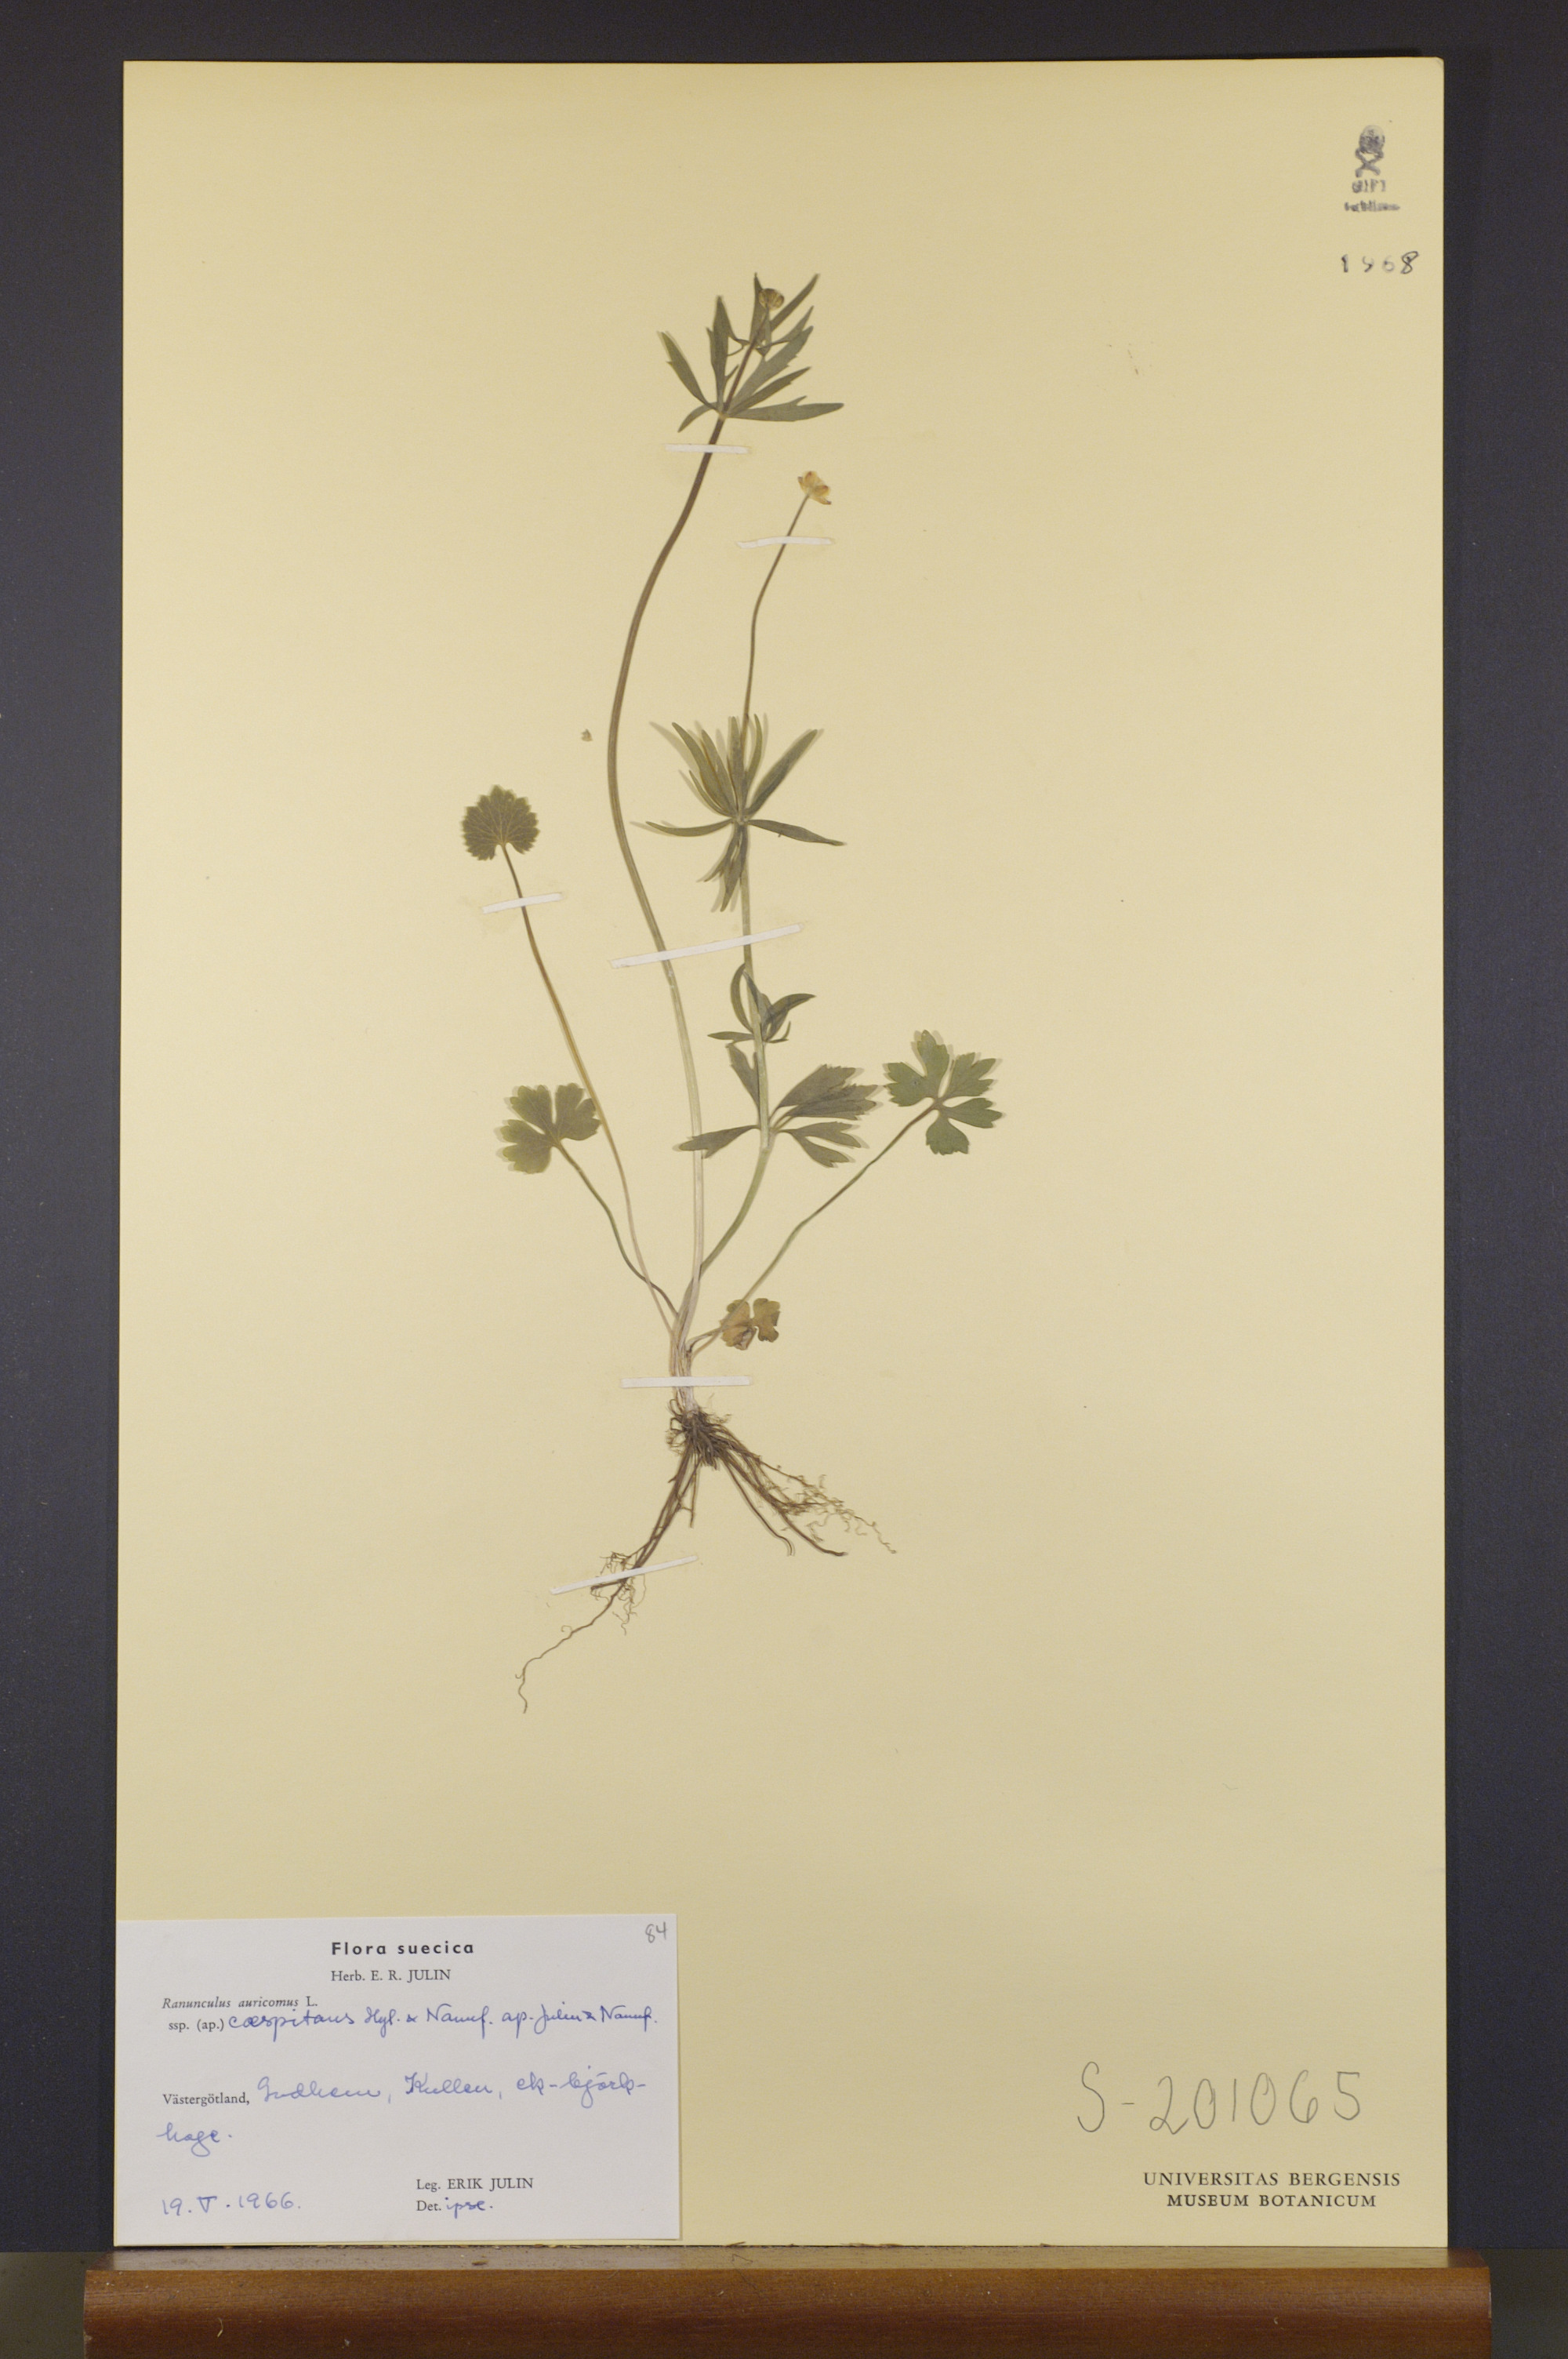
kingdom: Plantae
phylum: Tracheophyta
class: Magnoliopsida
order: Ranunculales
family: Ranunculaceae
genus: Ranunculus
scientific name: Ranunculus caespitans
